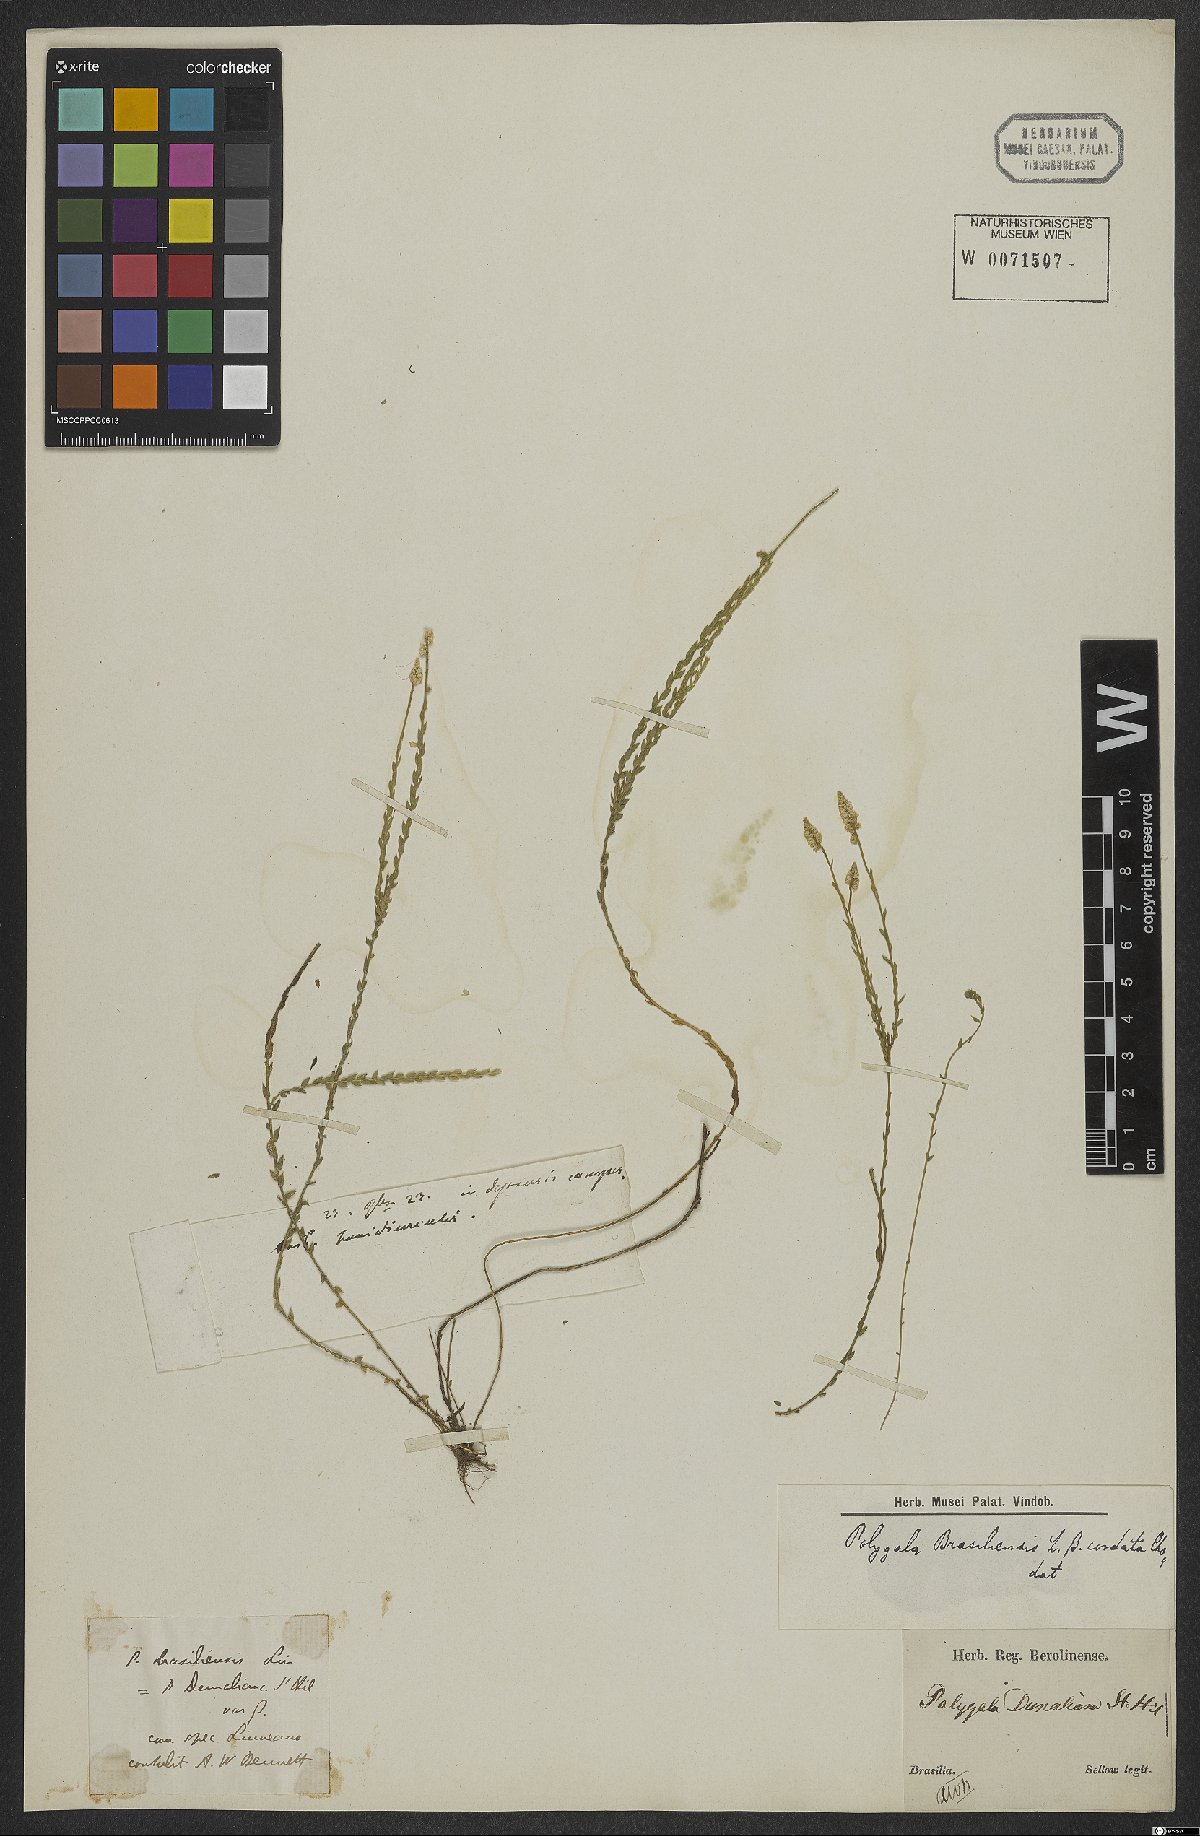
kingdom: Plantae
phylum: Tracheophyta
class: Magnoliopsida
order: Fabales
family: Polygalaceae
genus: Polygala
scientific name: Polygala brasiliensis
